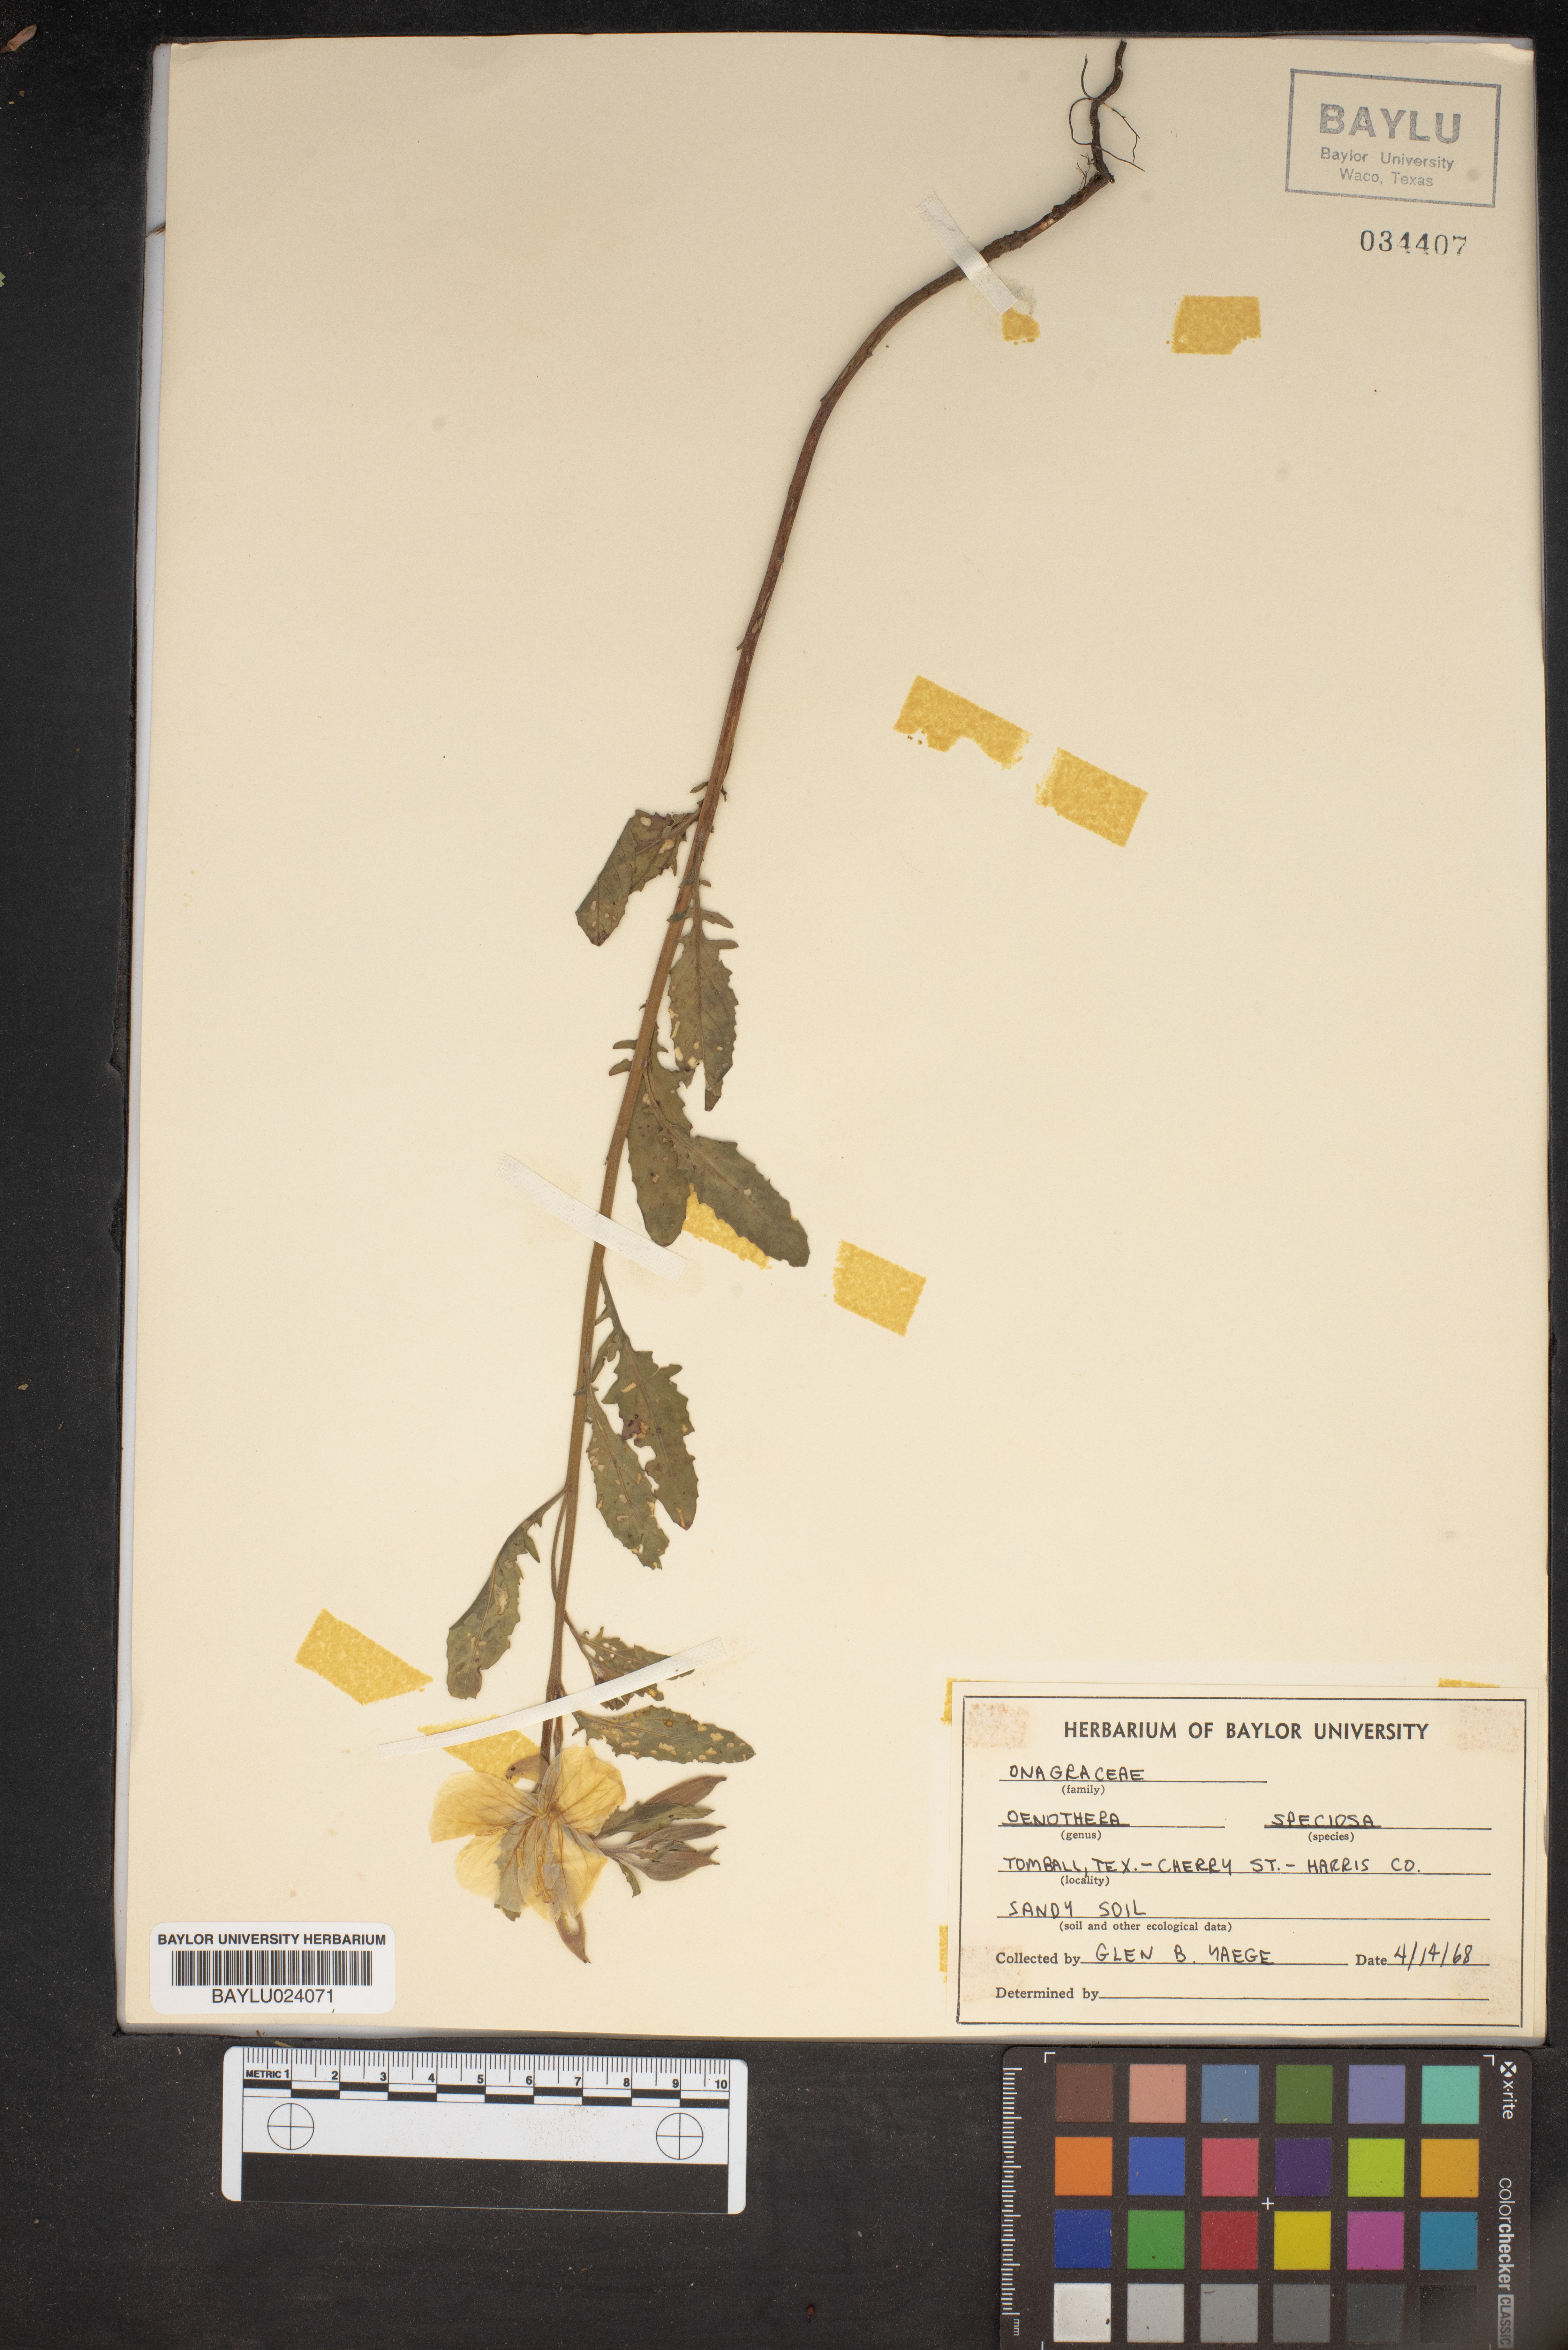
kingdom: Plantae
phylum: Tracheophyta
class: Magnoliopsida
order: Myrtales
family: Onagraceae
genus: Oenothera
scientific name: Oenothera speciosa
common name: White evening-primrose
